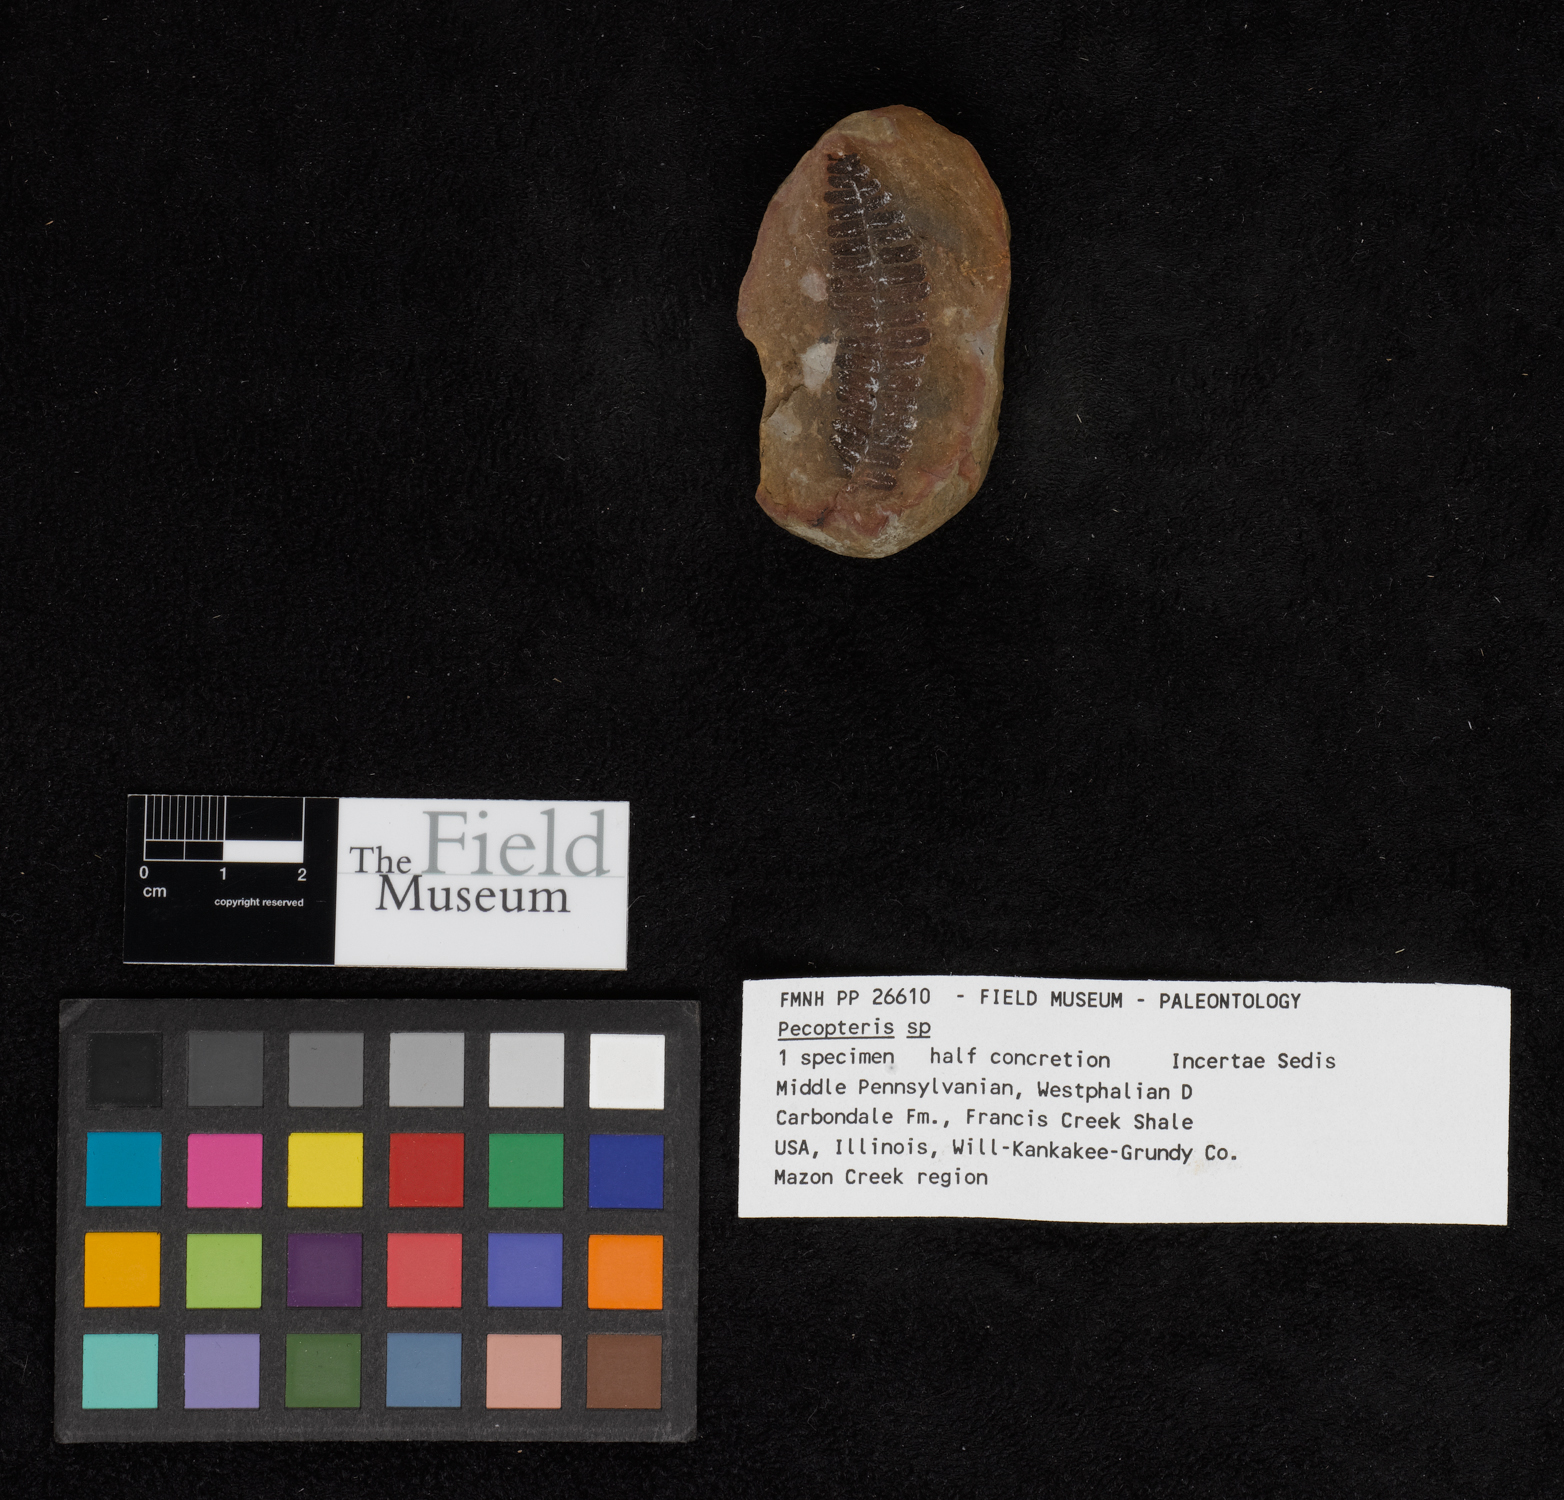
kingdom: Plantae
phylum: Tracheophyta
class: Polypodiopsida
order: Marattiales
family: Asterothecaceae
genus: Pecopteris
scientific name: Pecopteris
